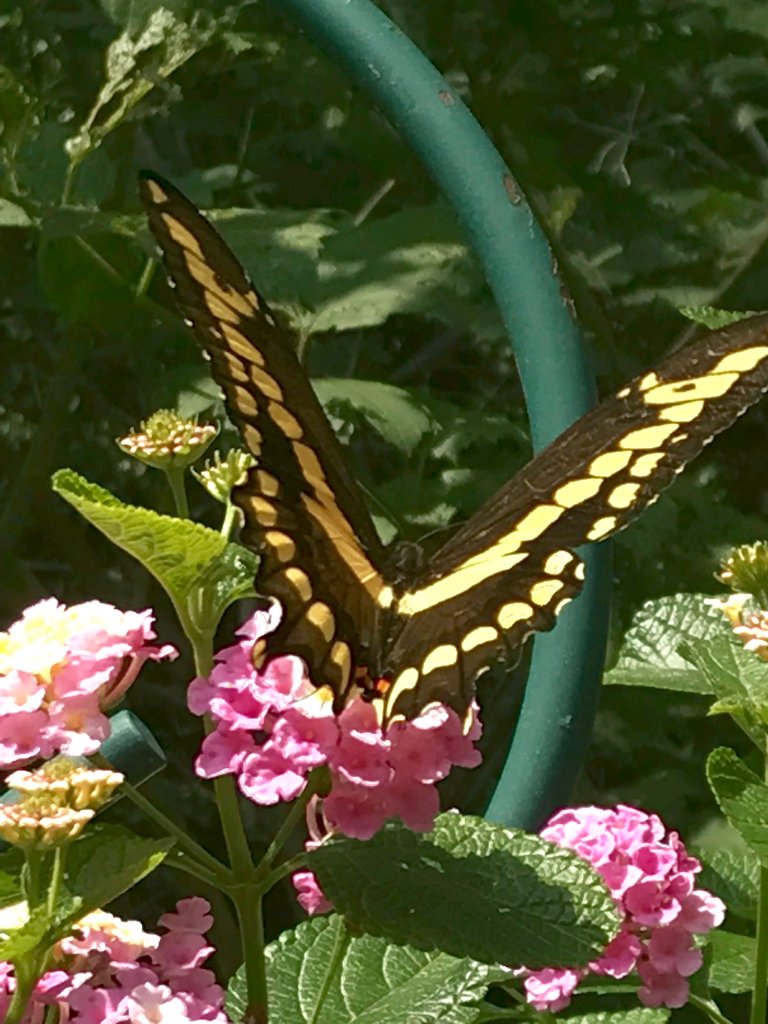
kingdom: Animalia
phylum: Arthropoda
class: Insecta
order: Lepidoptera
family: Papilionidae
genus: Papilio
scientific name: Papilio cresphontes
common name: Eastern Giant Swallowtail
